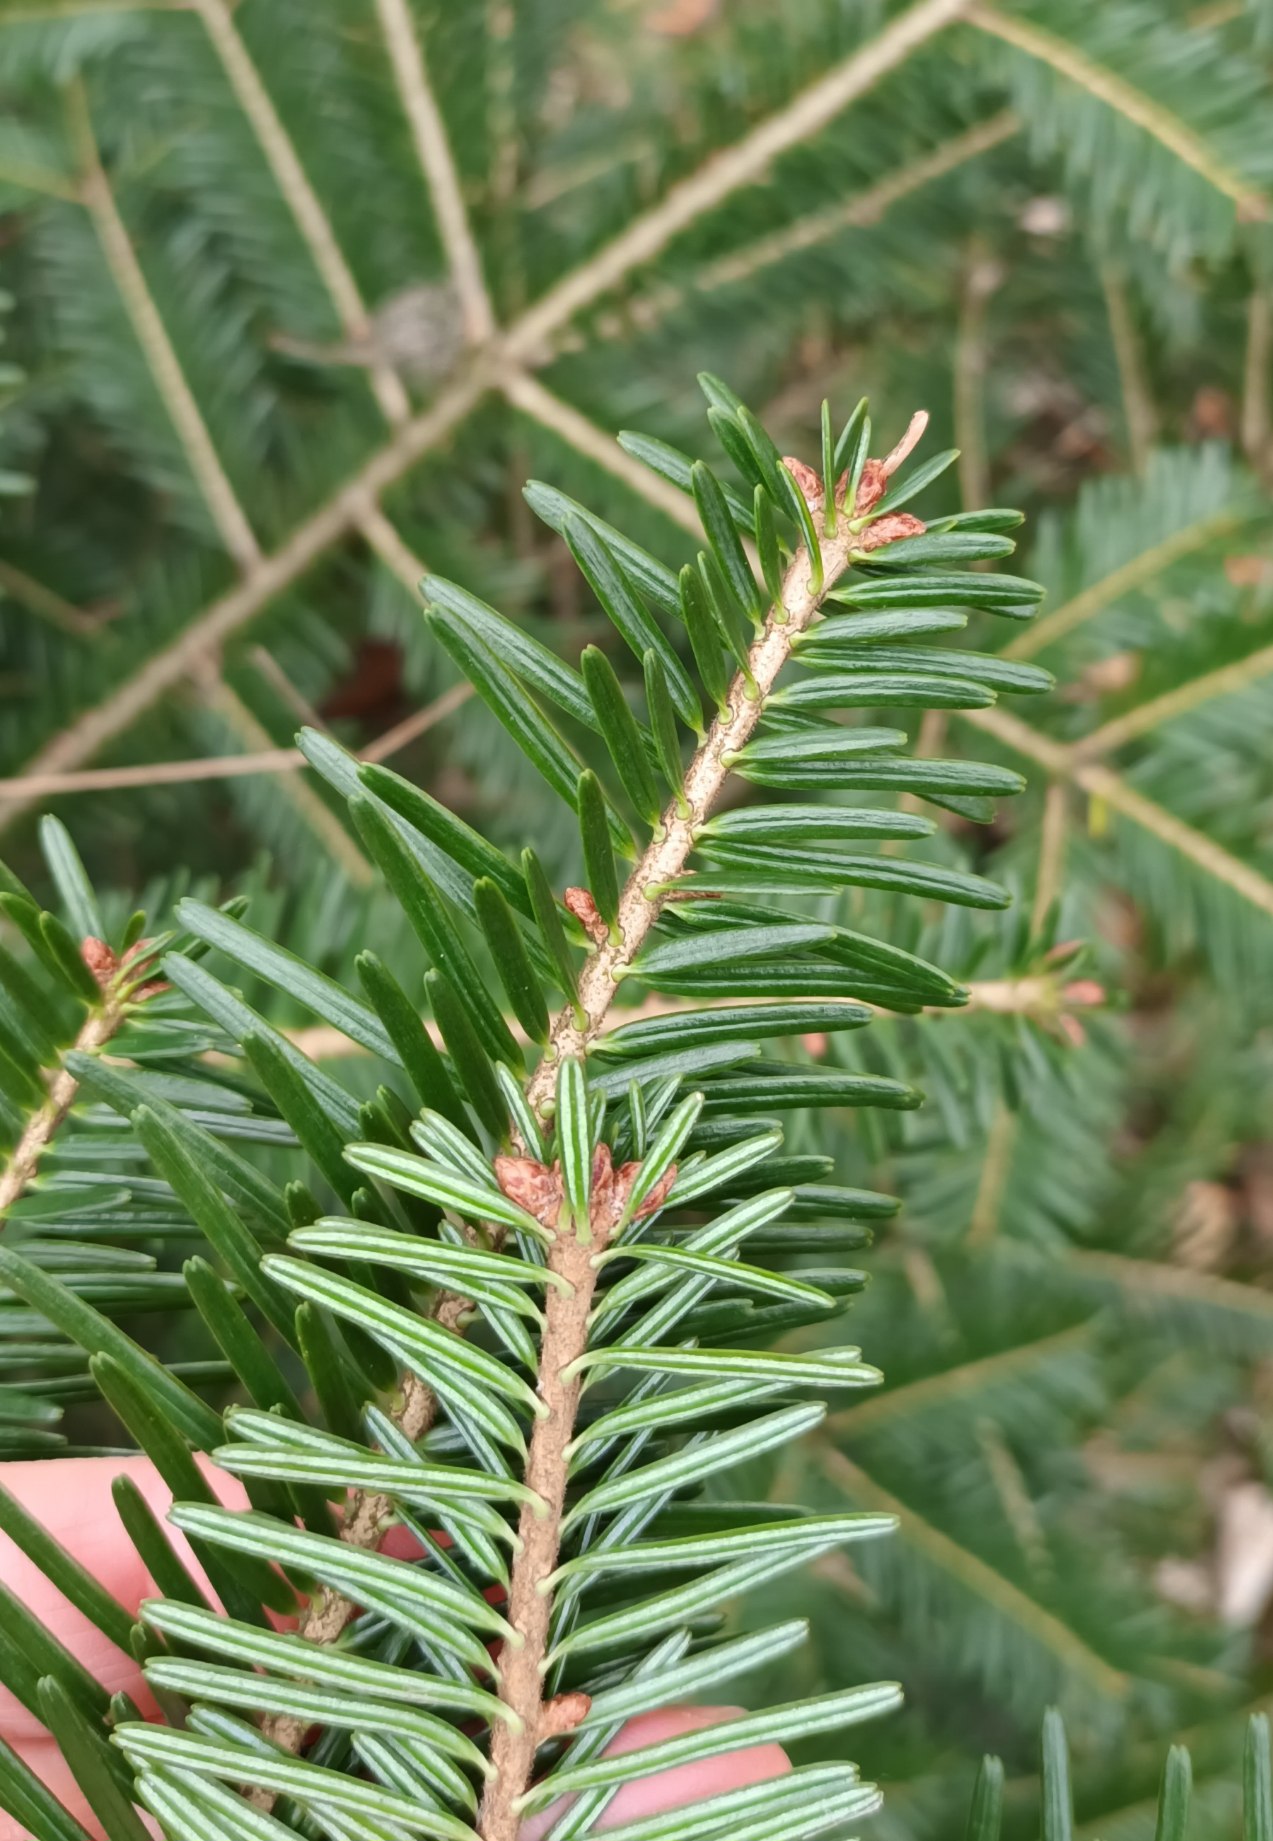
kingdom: Plantae
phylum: Tracheophyta
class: Pinopsida
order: Pinales
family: Pinaceae
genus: Abies
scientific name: Abies alba
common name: Almindelig ædelgran
